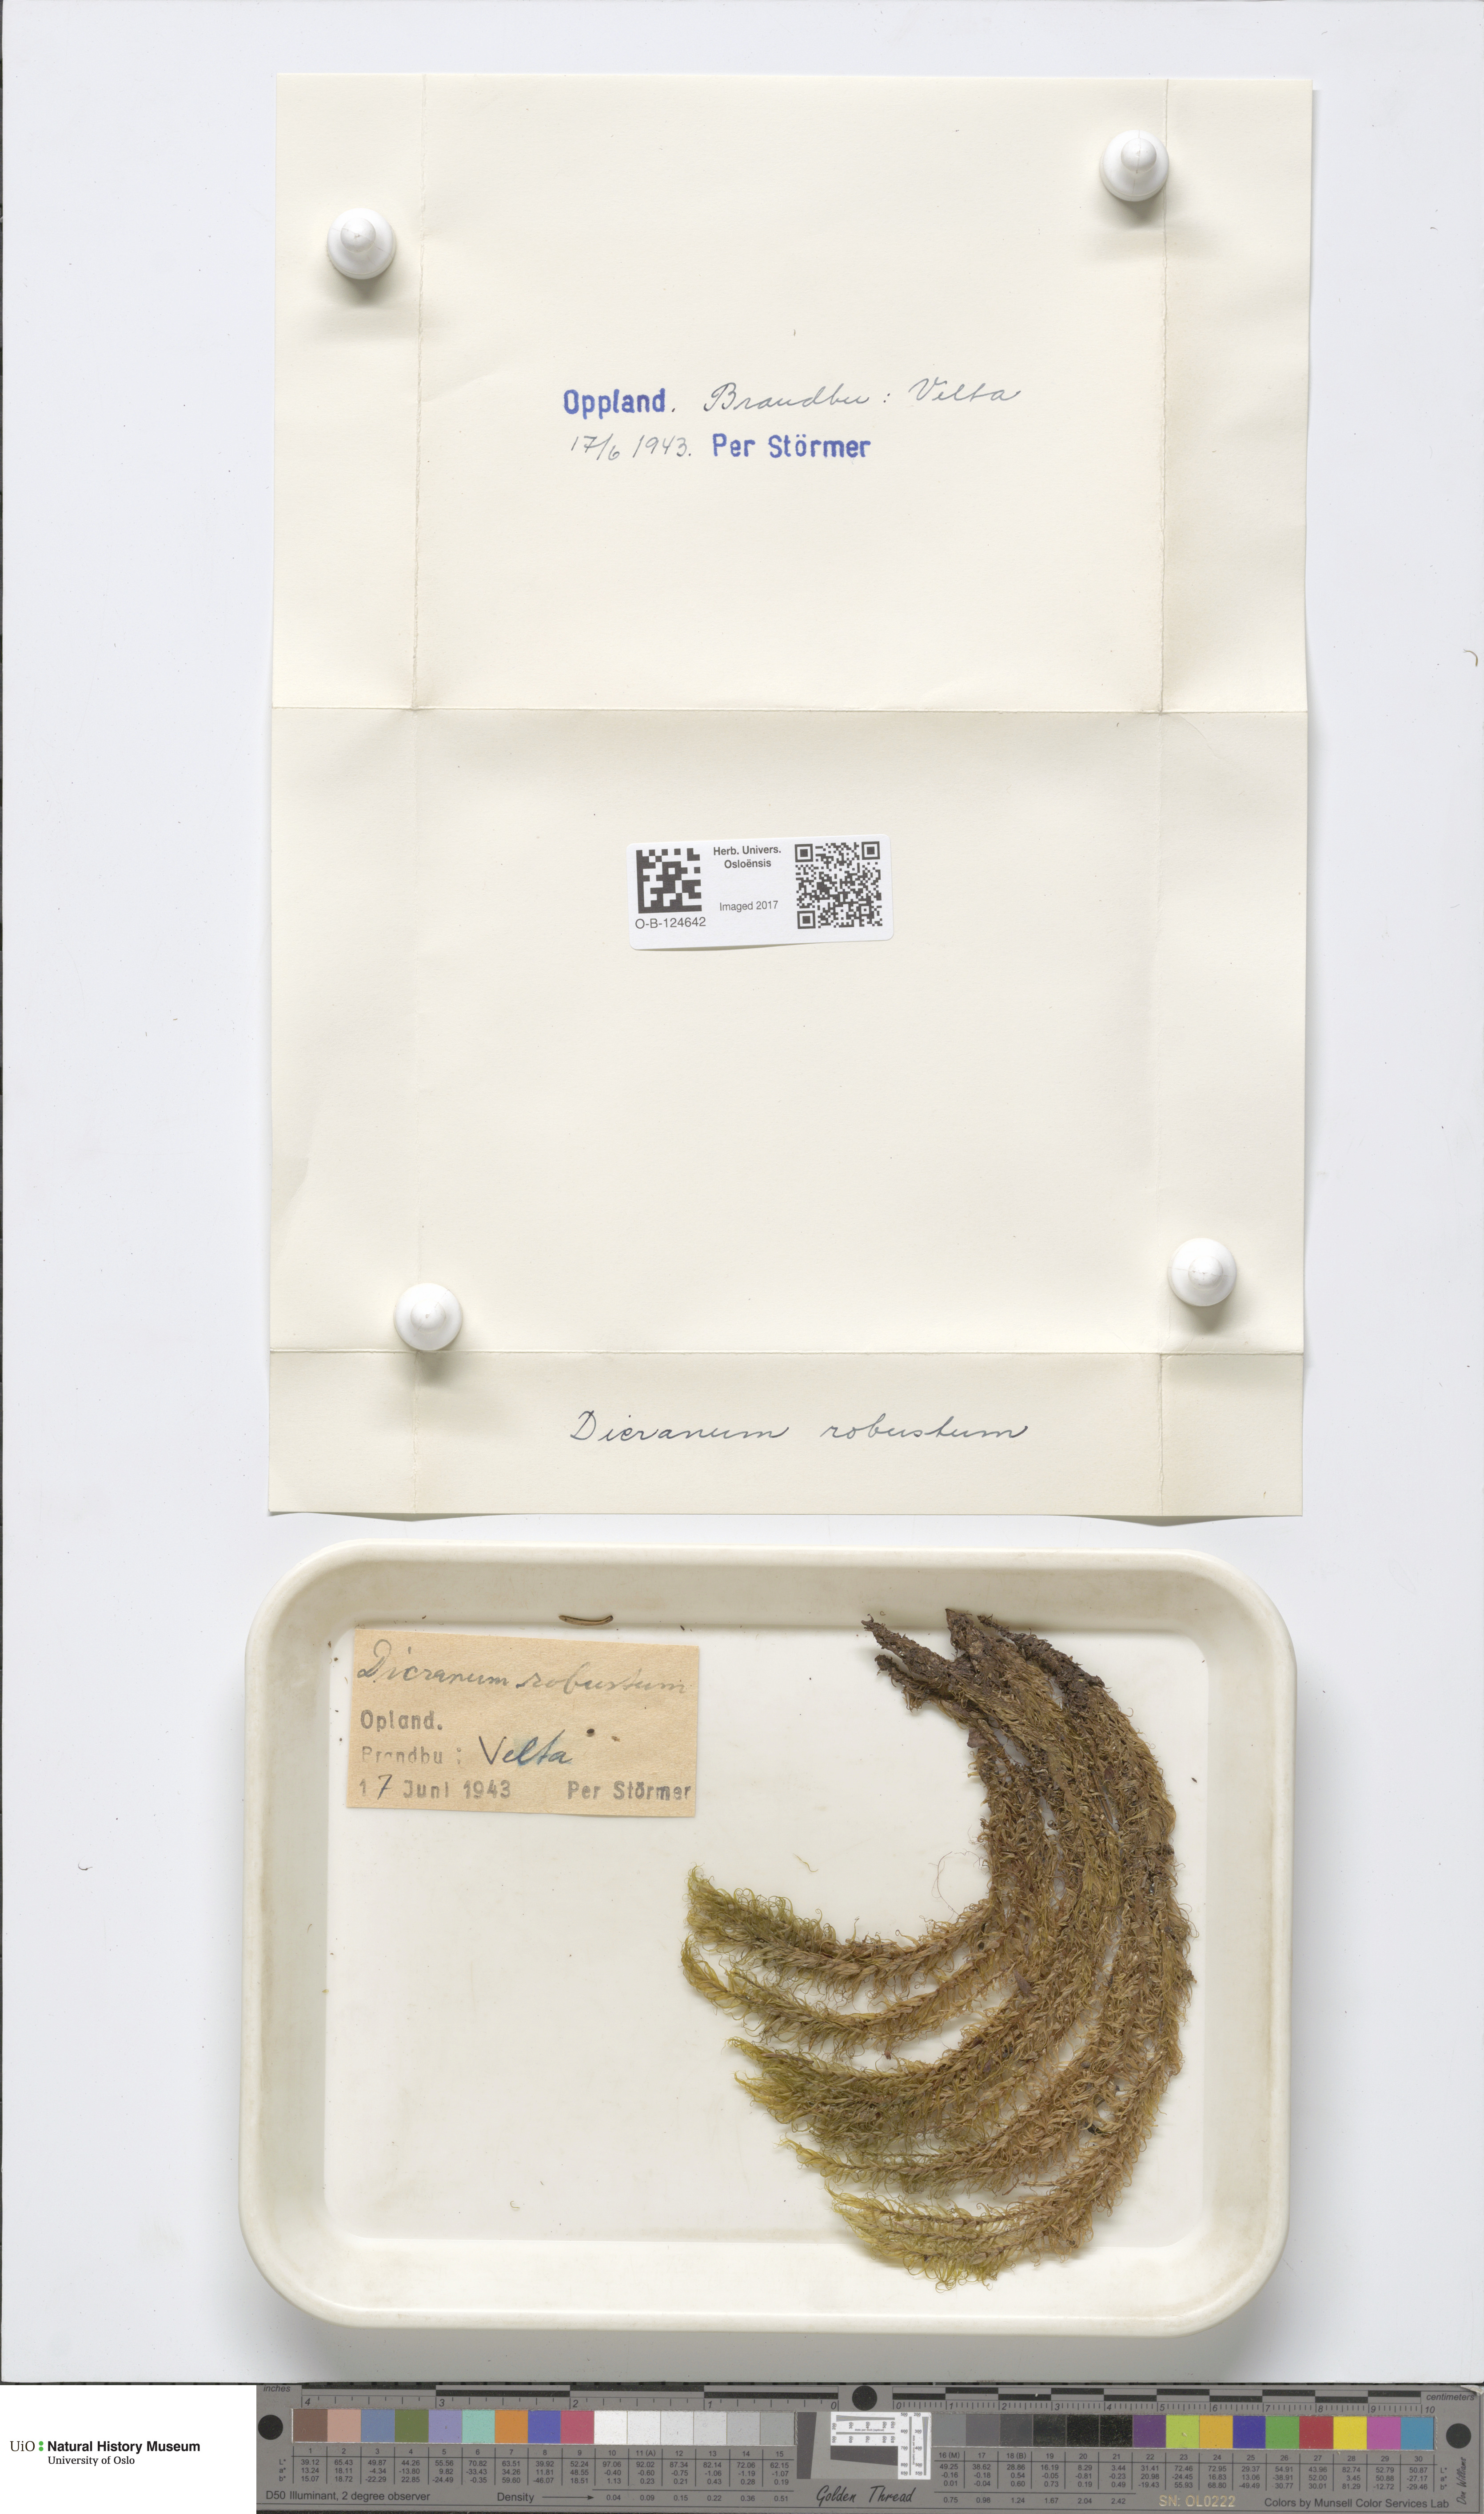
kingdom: Plantae
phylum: Bryophyta
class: Bryopsida
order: Dicranales
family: Dicranaceae
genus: Dicranum
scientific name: Dicranum drummondii
